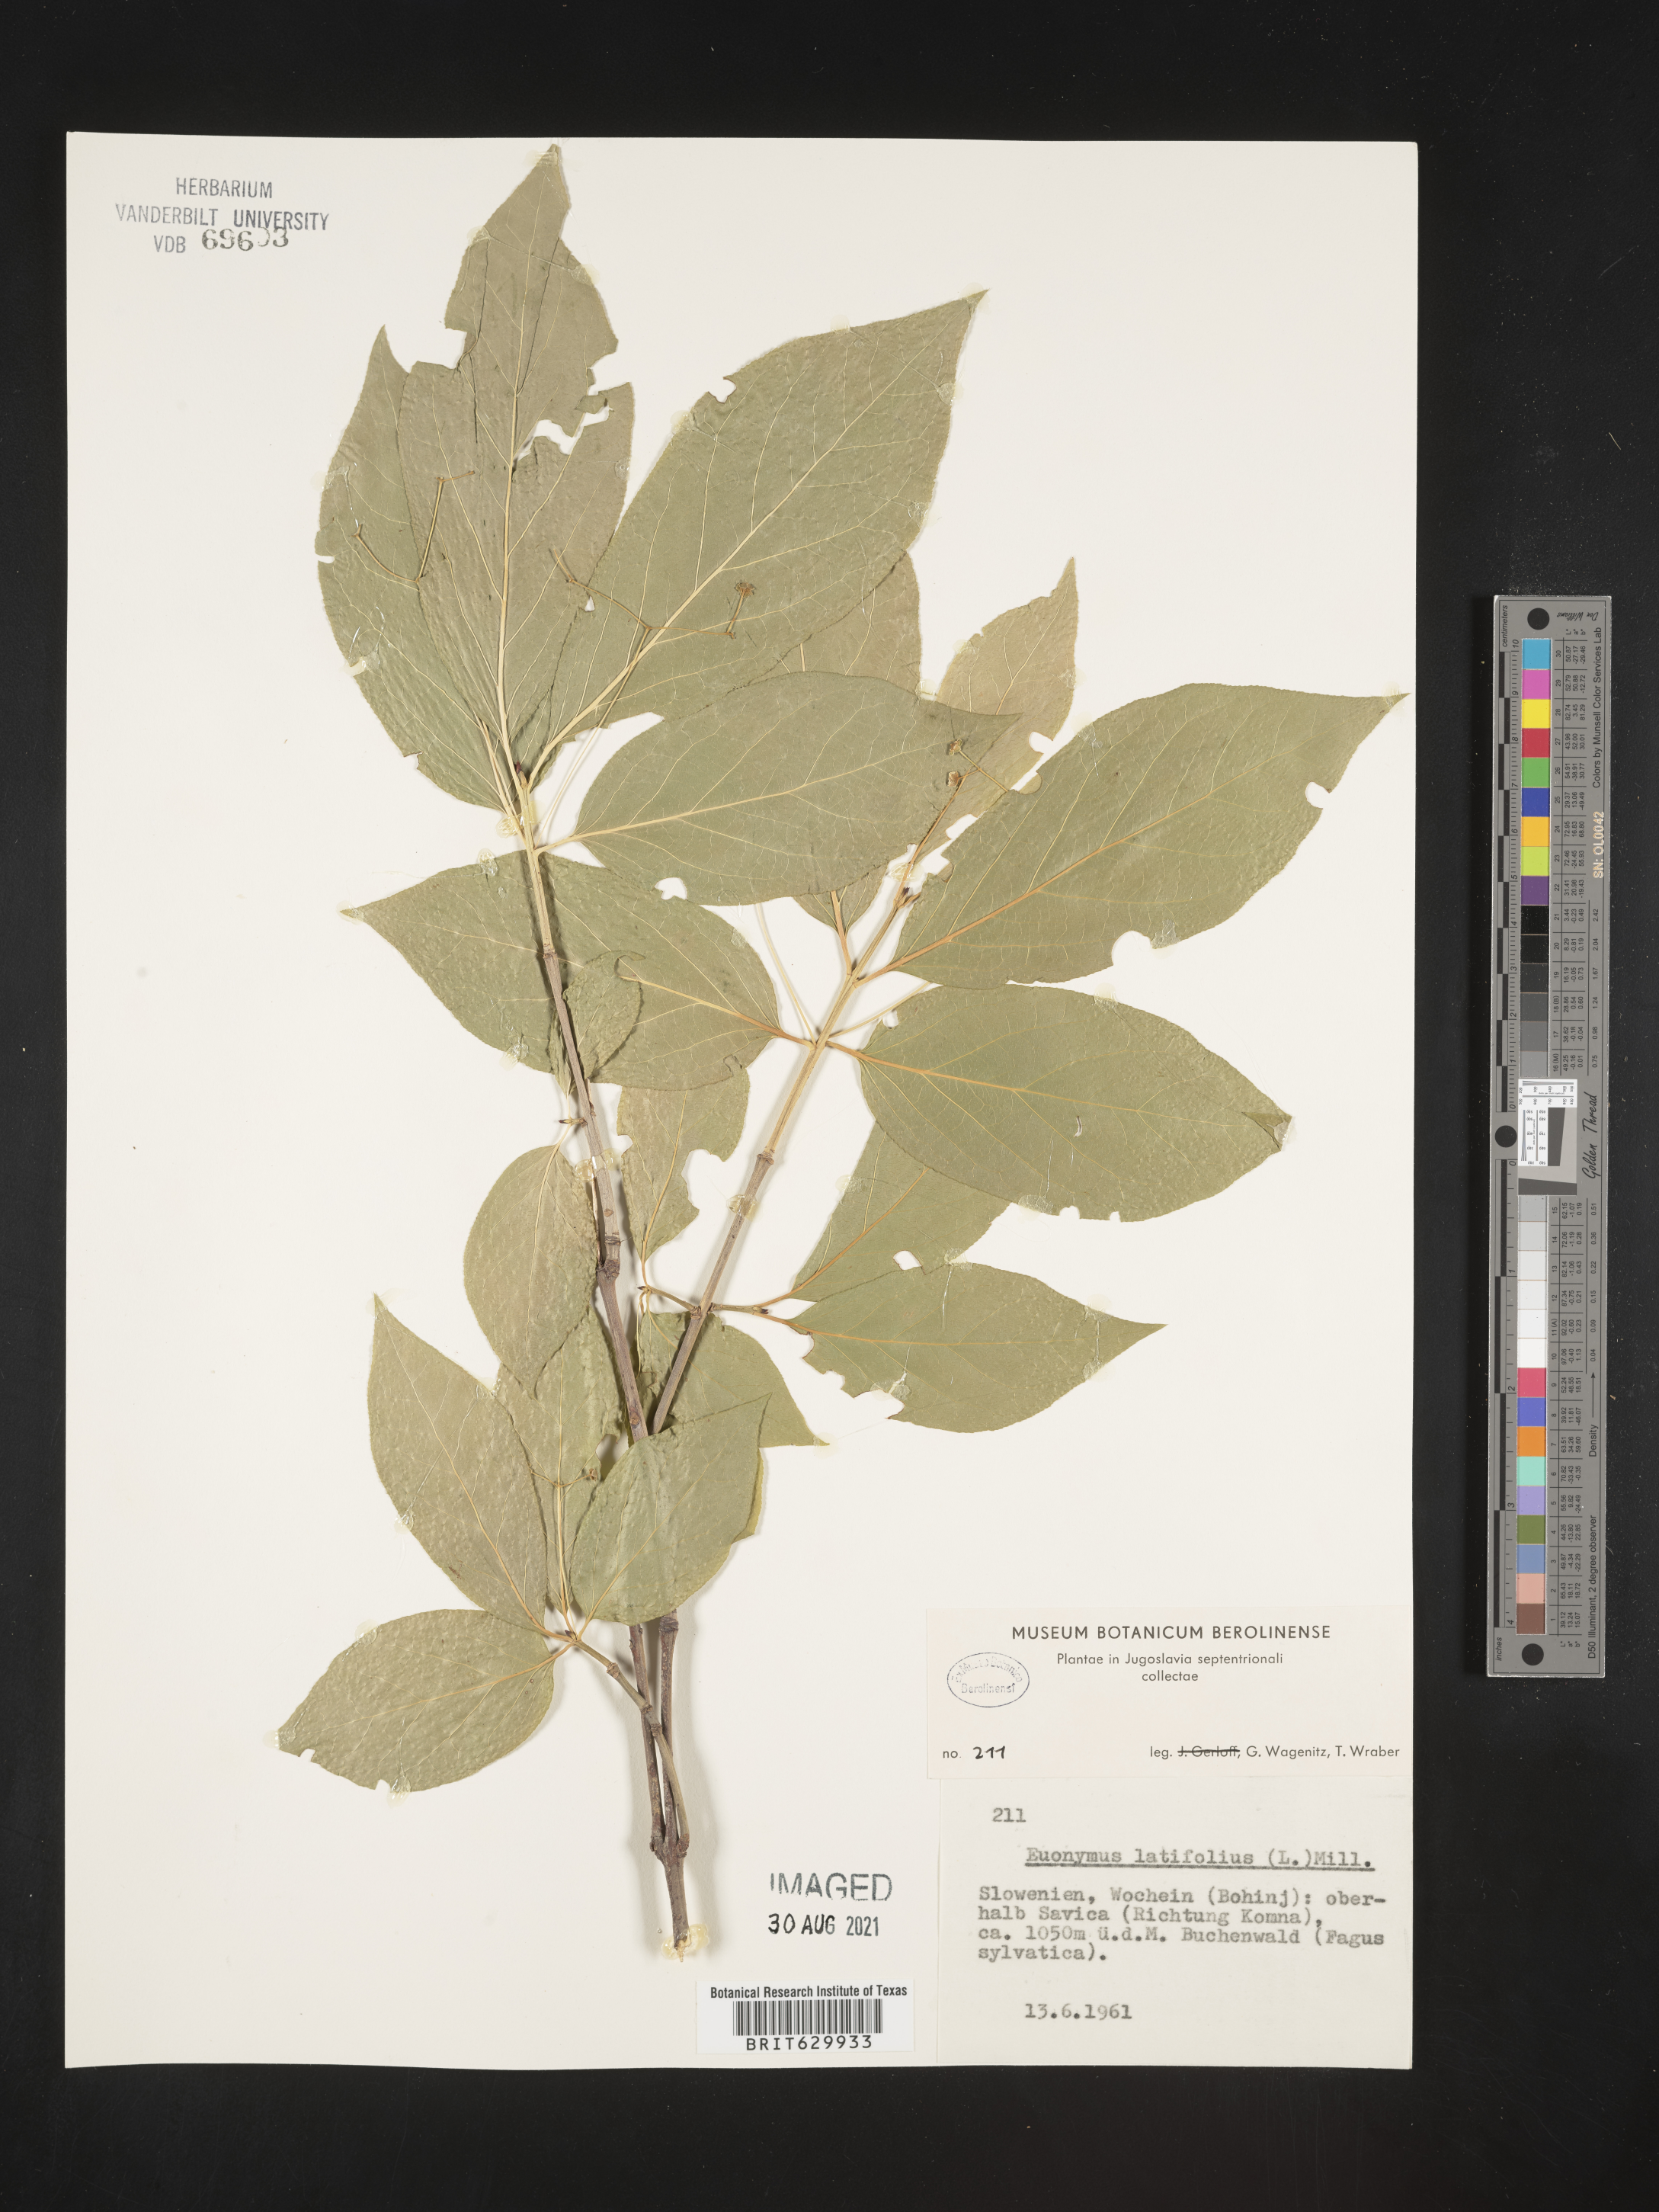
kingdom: Plantae
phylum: Tracheophyta
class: Magnoliopsida
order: Celastrales
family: Celastraceae
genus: Euonymus
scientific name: Euonymus latifolius
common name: Large-leaved spindle
